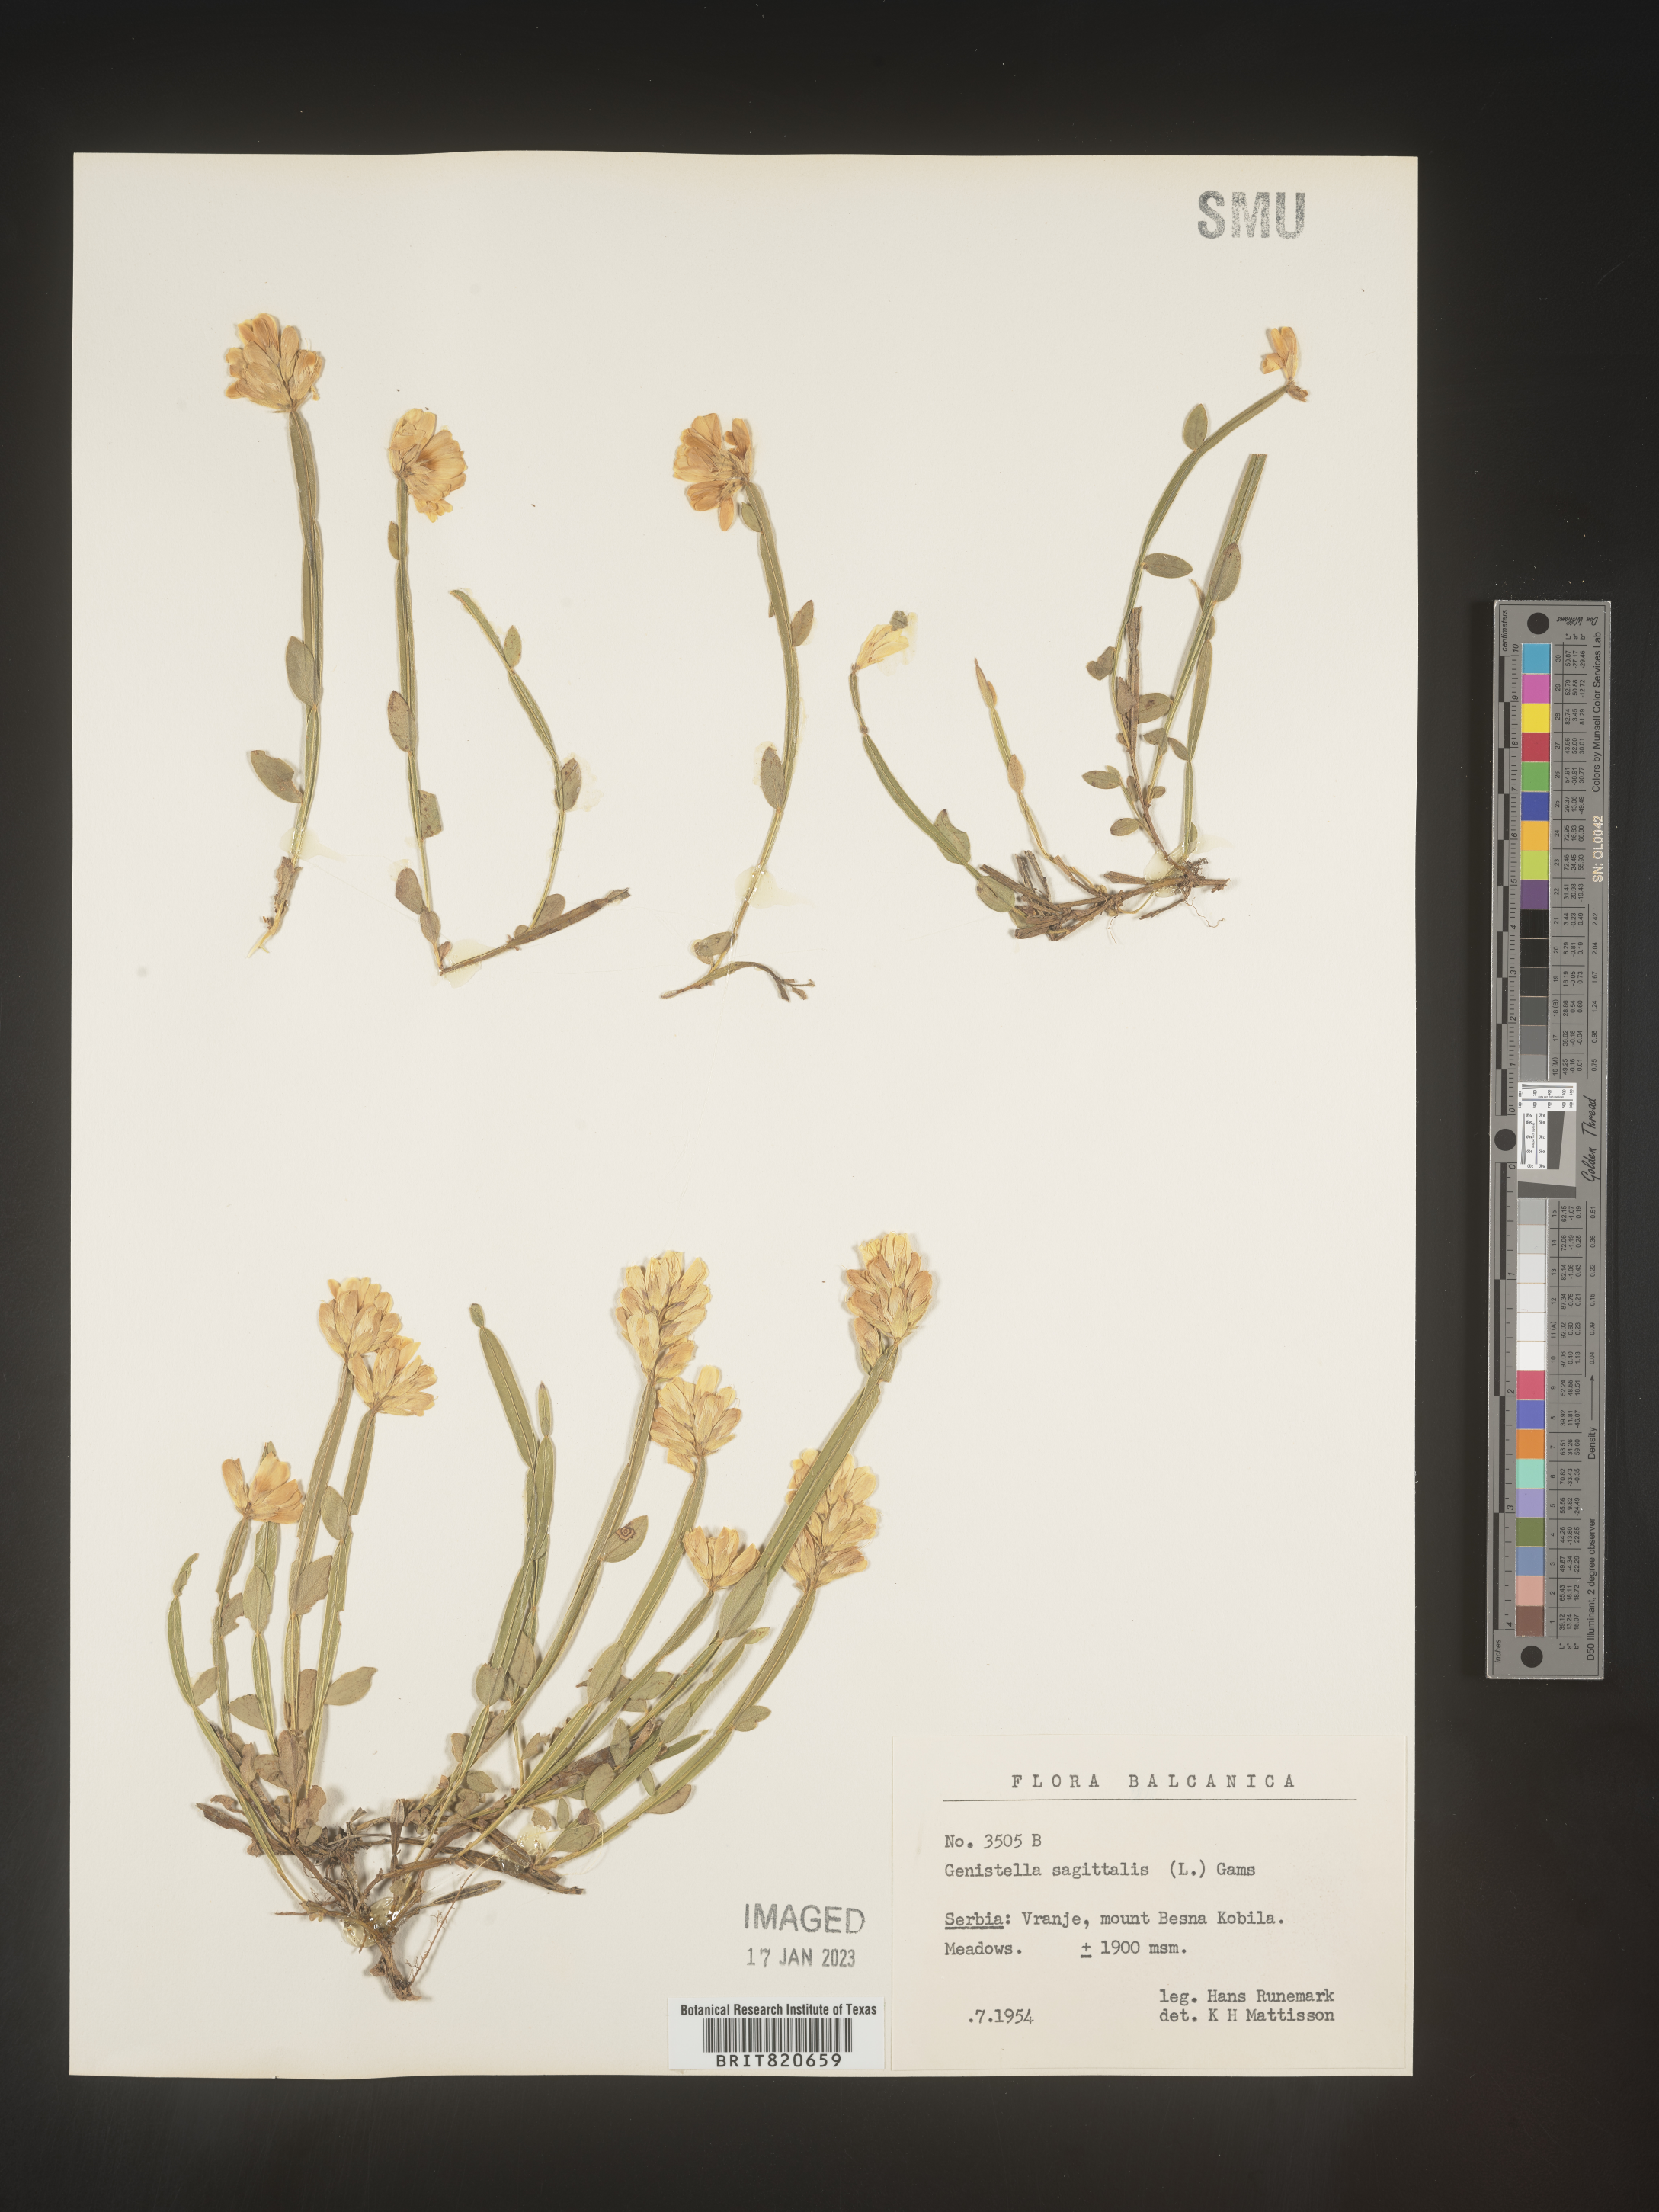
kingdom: Plantae
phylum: Tracheophyta
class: Magnoliopsida
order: Fabales
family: Fabaceae
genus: Genista
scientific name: Genista
